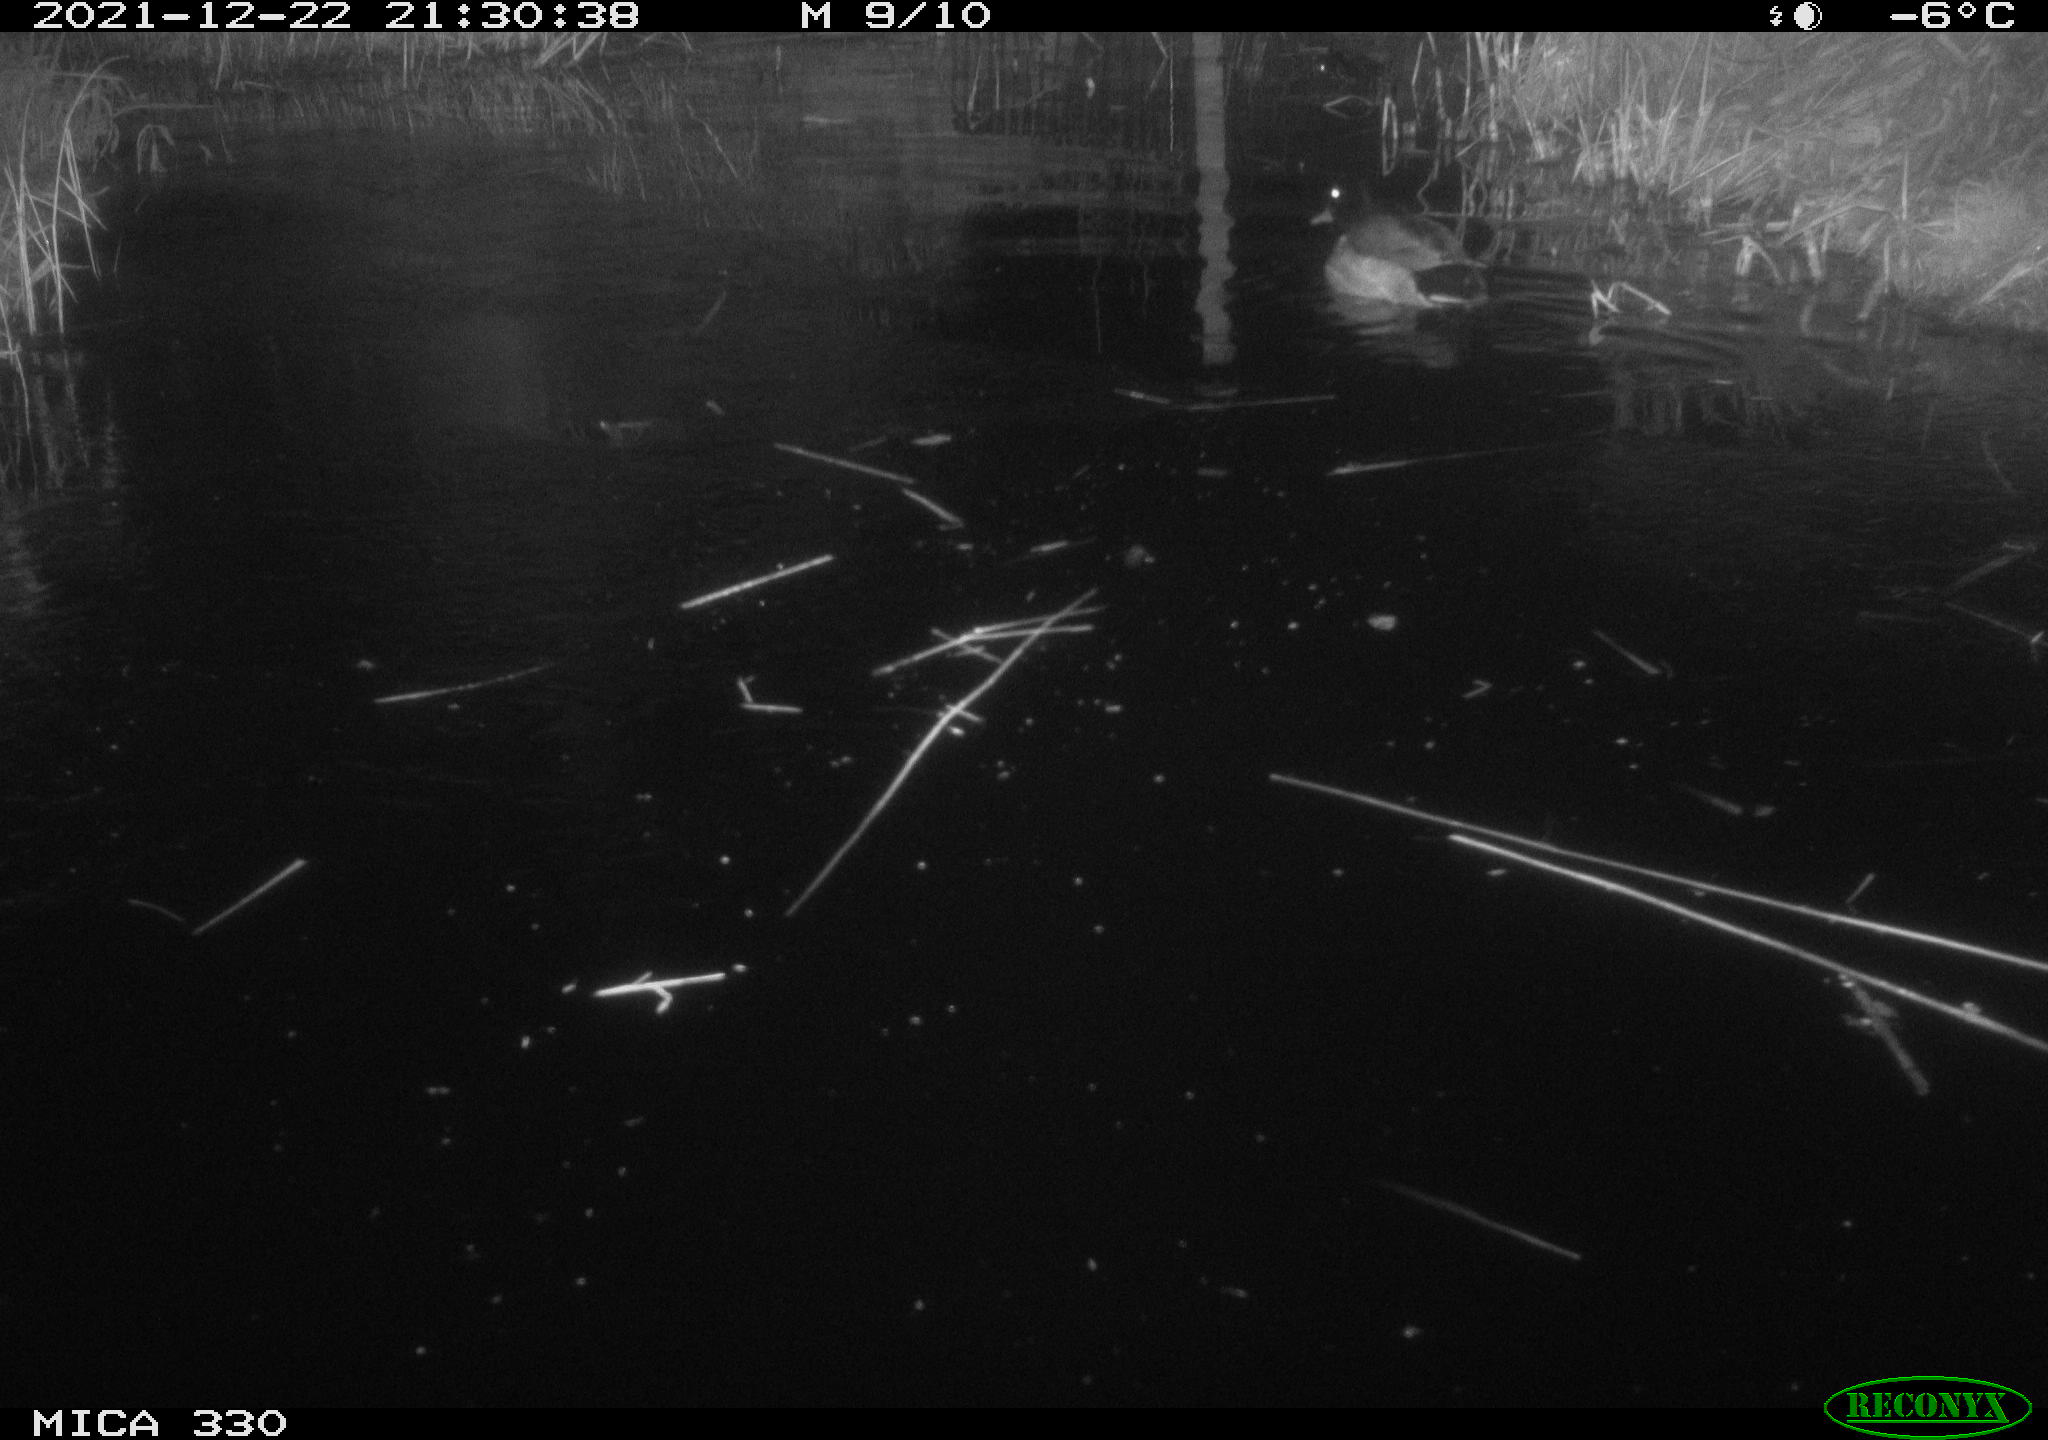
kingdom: Animalia
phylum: Chordata
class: Aves
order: Anseriformes
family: Anatidae
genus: Anas
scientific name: Anas platyrhynchos
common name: Mallard
